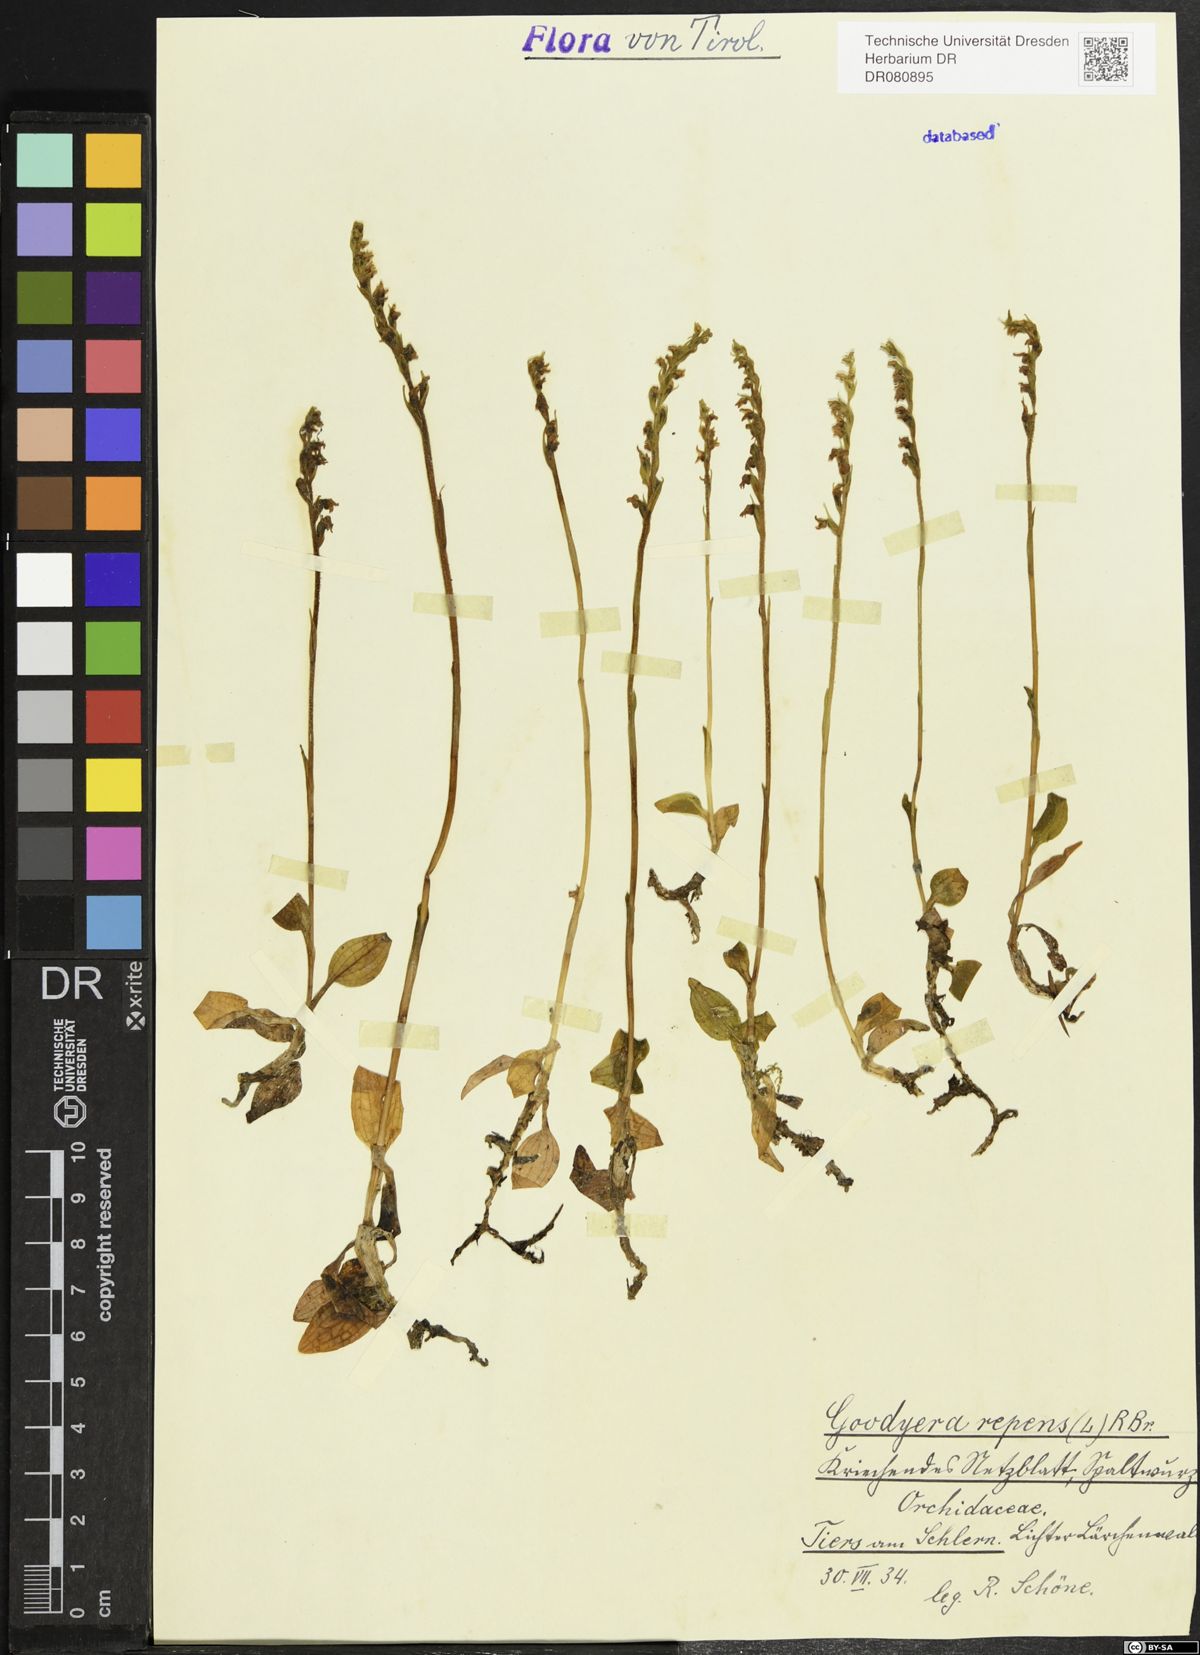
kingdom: Plantae
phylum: Tracheophyta
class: Liliopsida
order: Asparagales
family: Orchidaceae
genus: Goodyera
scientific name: Goodyera repens
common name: Creeping lady's-tresses
